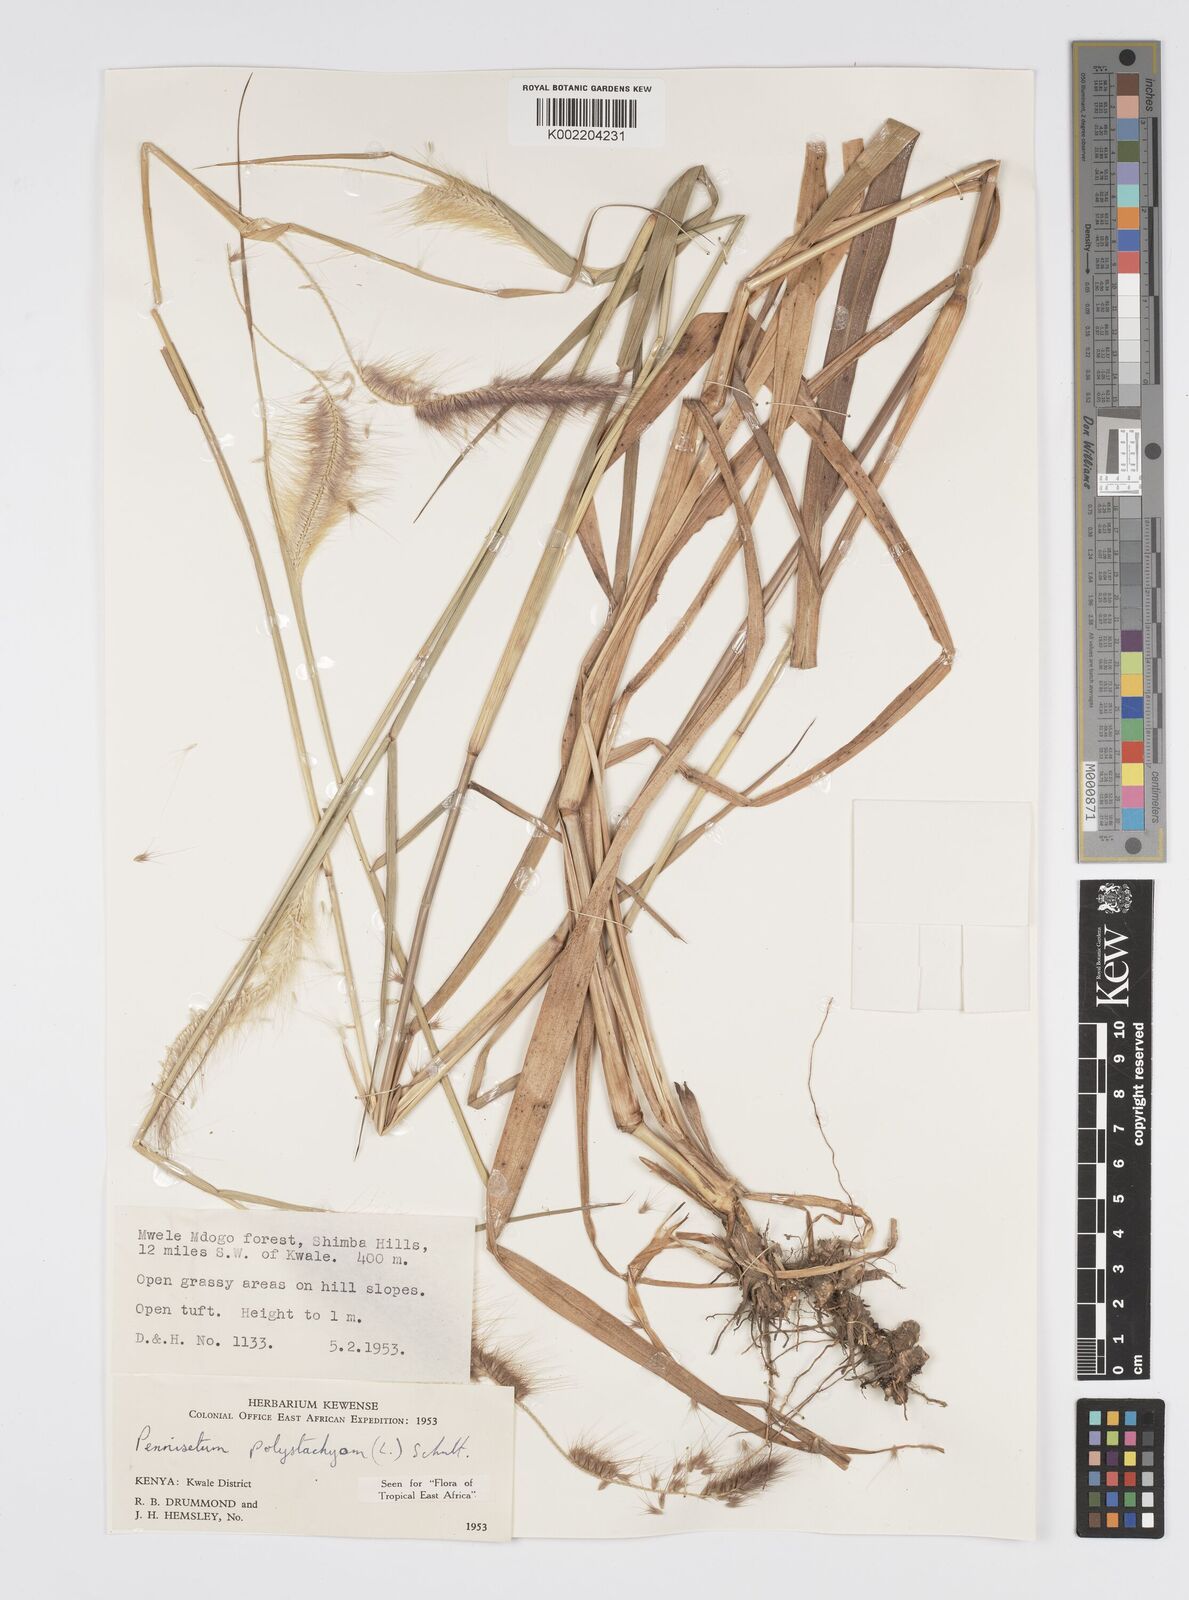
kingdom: Plantae
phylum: Tracheophyta
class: Liliopsida
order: Poales
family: Poaceae
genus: Cenchrus
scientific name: Cenchrus Pennisetum spec
